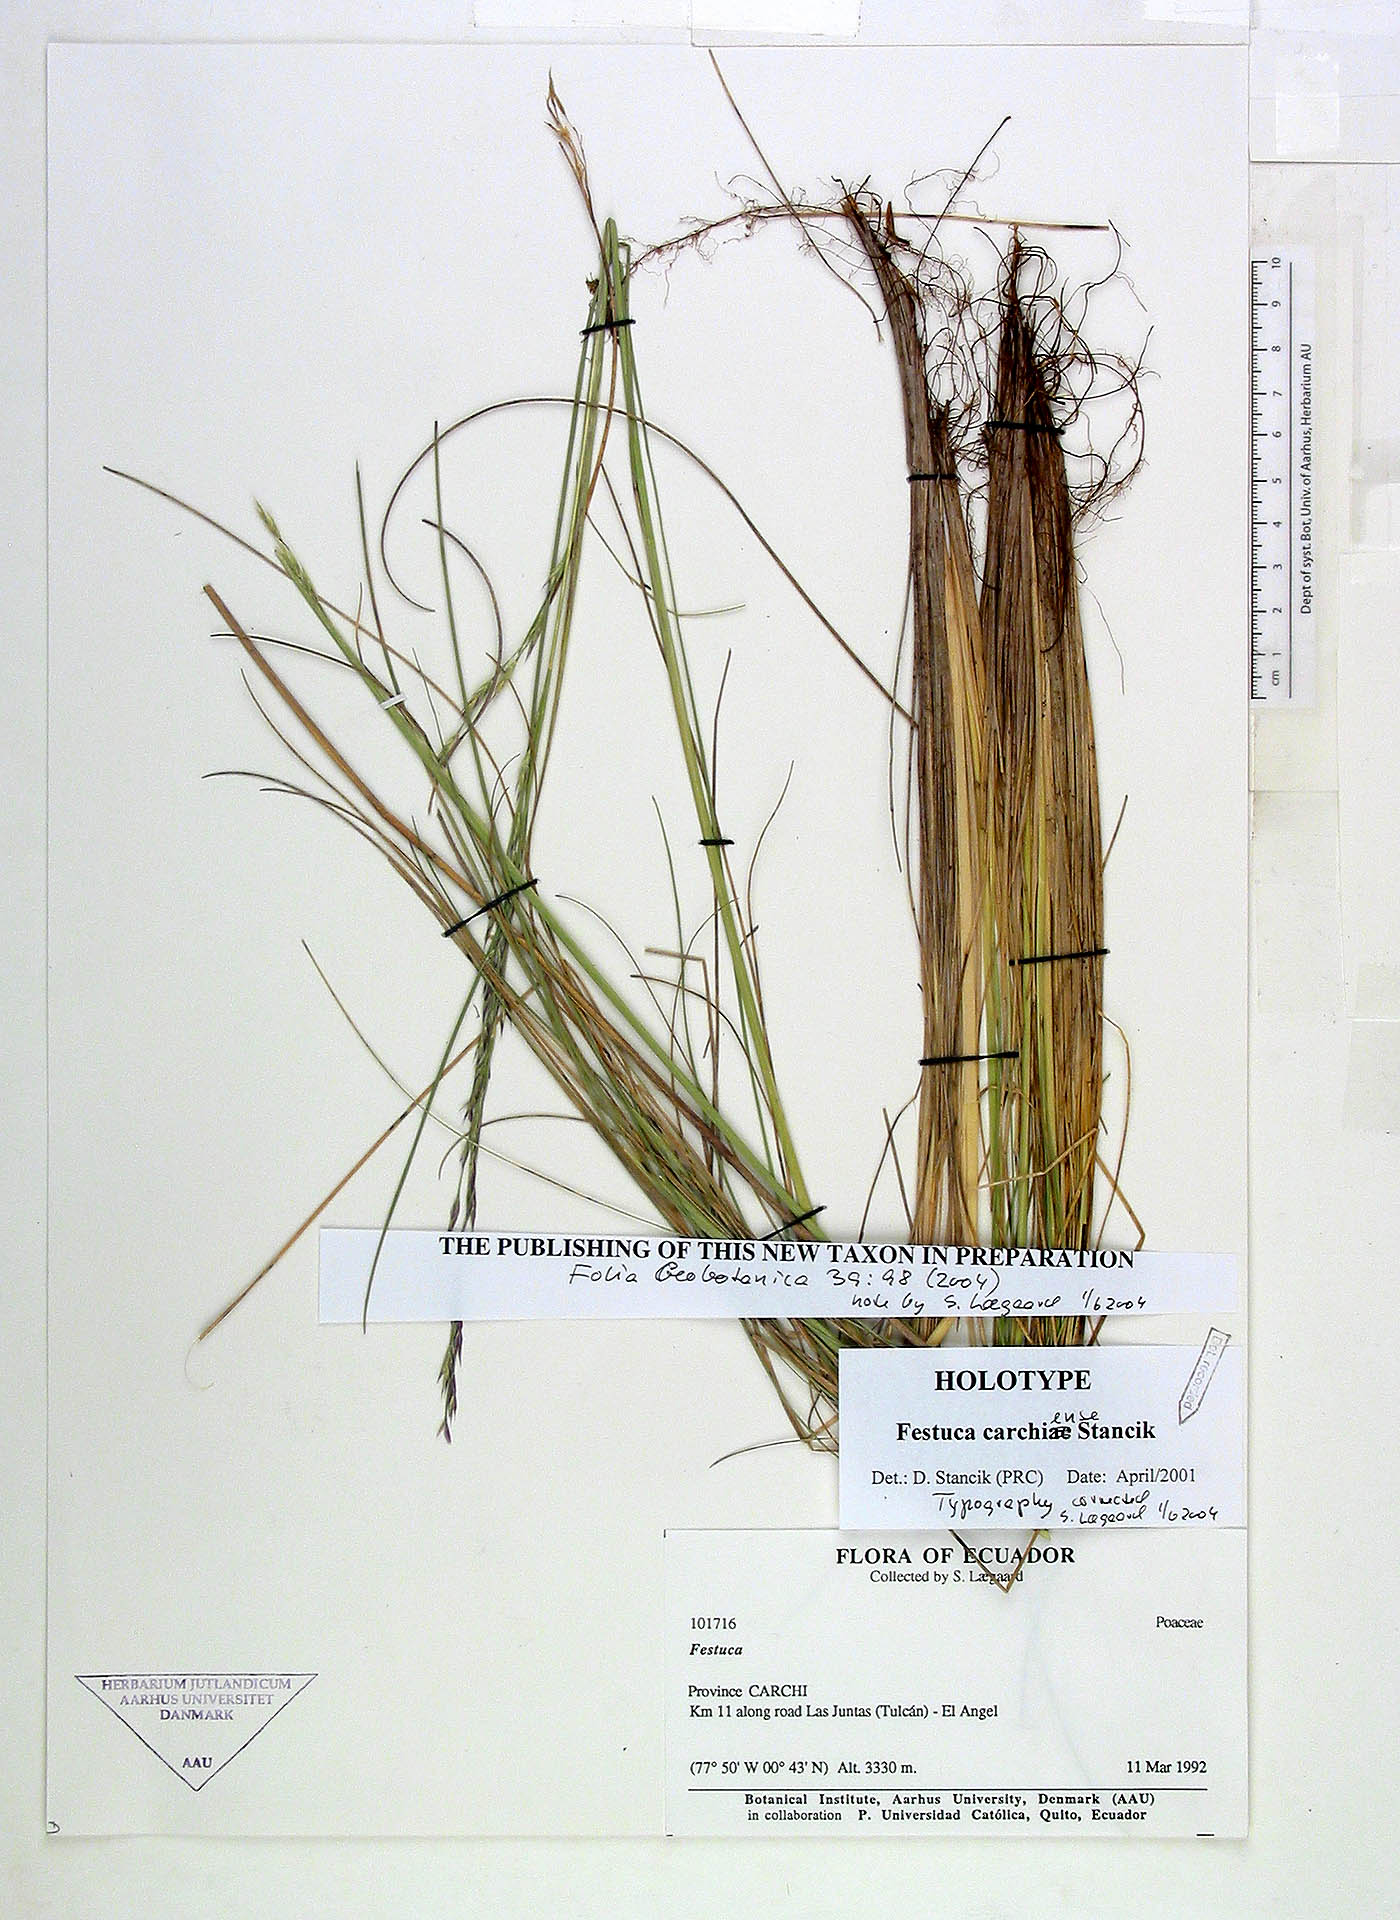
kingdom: Plantae
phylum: Tracheophyta
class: Liliopsida
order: Poales
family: Poaceae
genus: Festuca
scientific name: Festuca carchiensis
